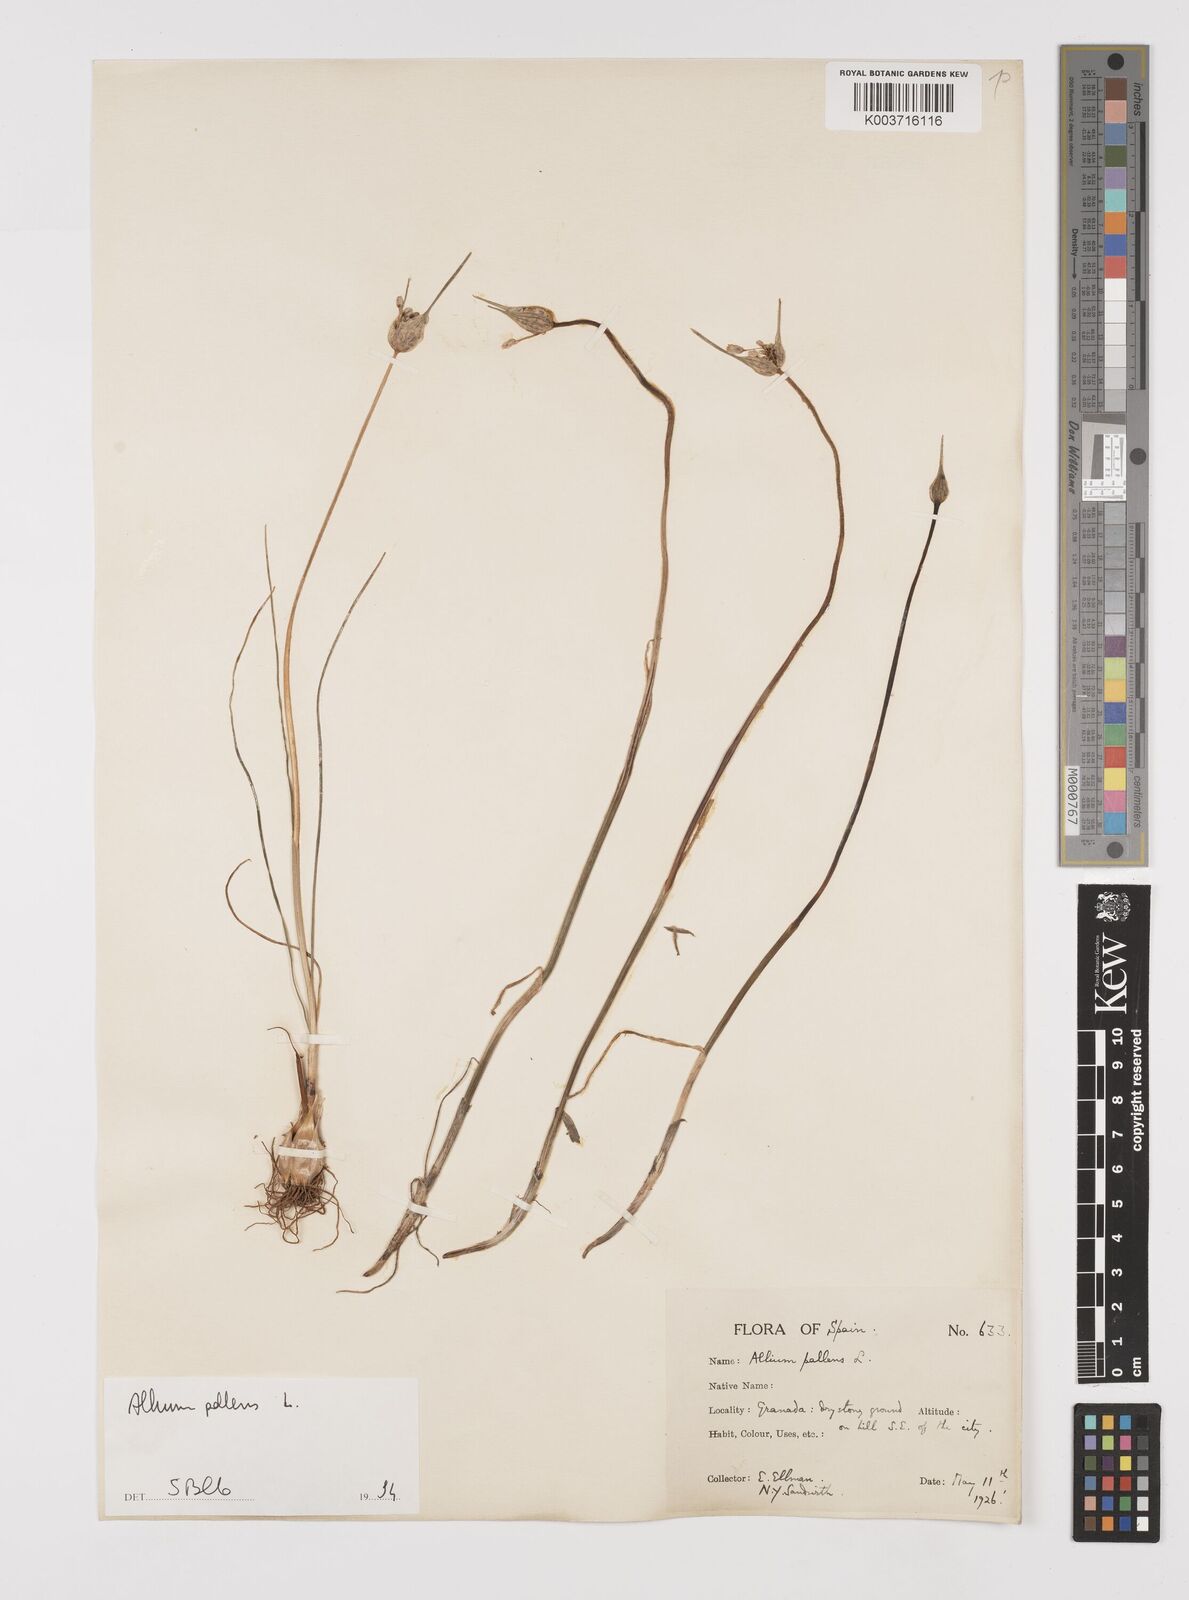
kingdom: Plantae
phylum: Tracheophyta
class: Liliopsida
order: Asparagales
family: Amaryllidaceae
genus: Allium
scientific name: Allium pallens
